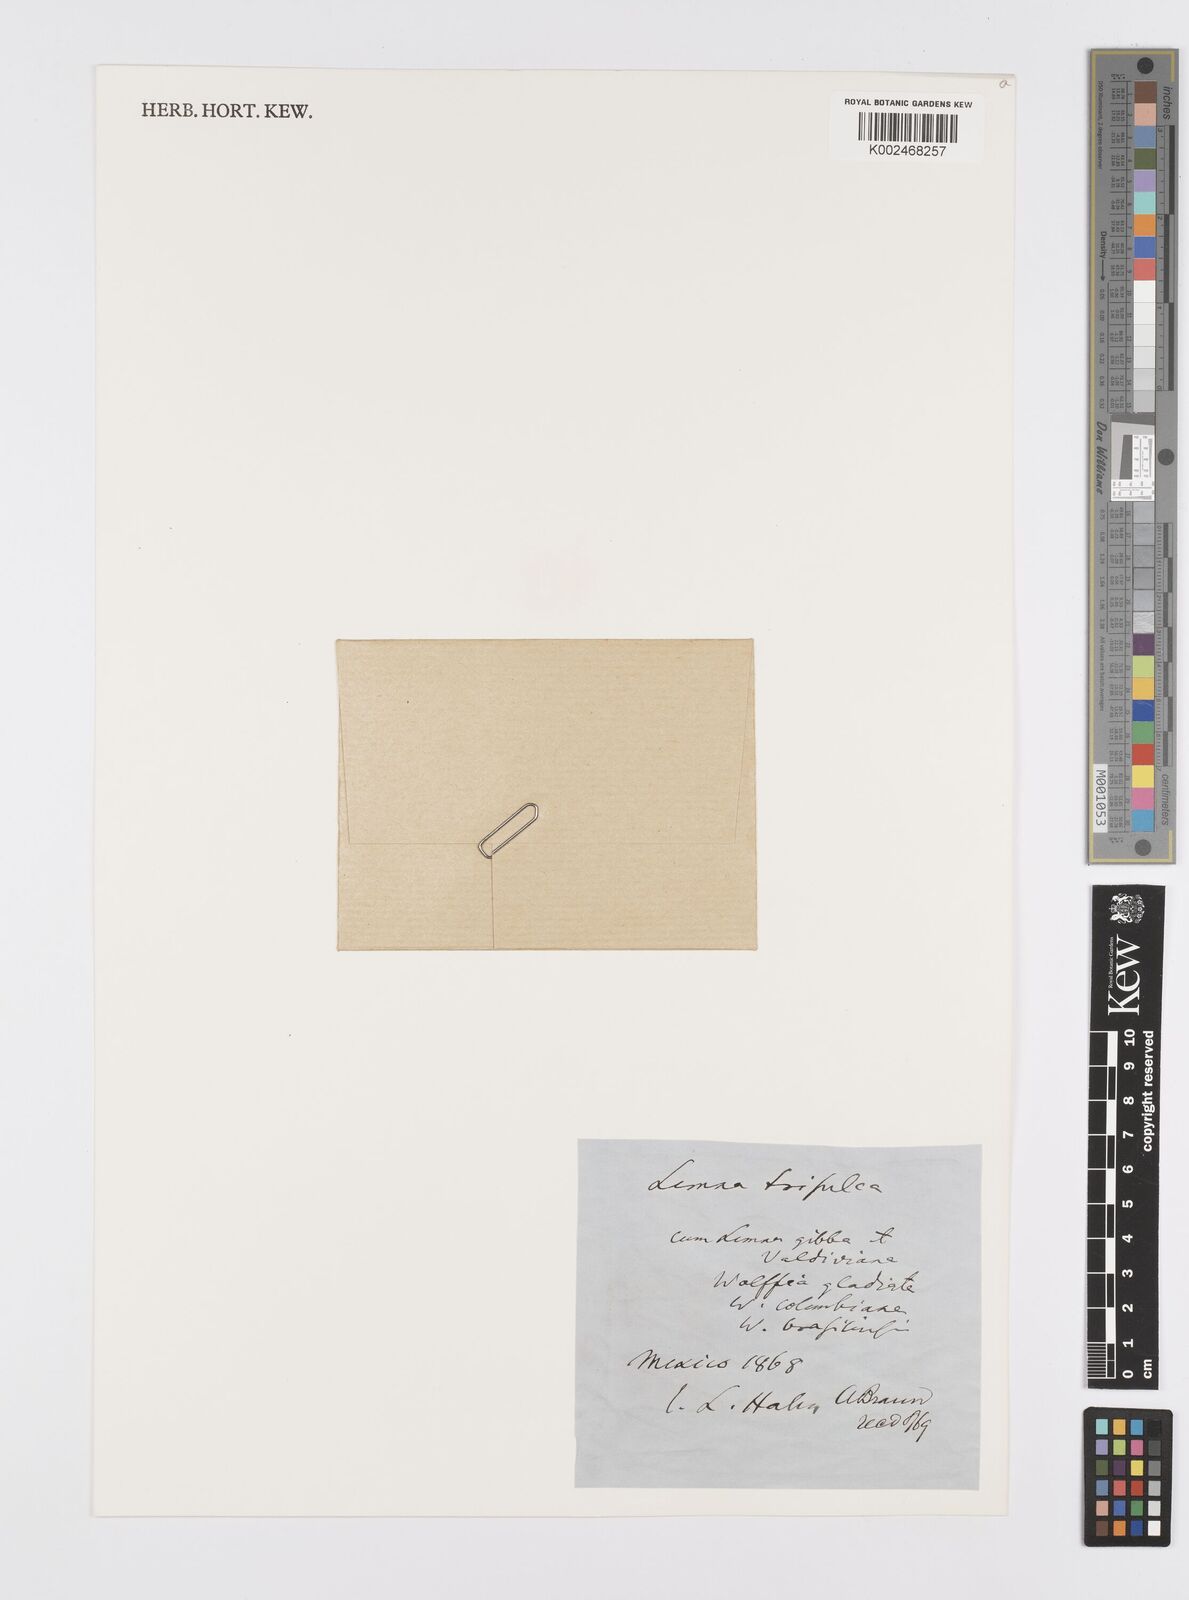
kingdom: Plantae
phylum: Tracheophyta
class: Liliopsida
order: Alismatales
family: Araceae
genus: Lemna
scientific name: Lemna trisulca
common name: Ivy-leaved duckweed
